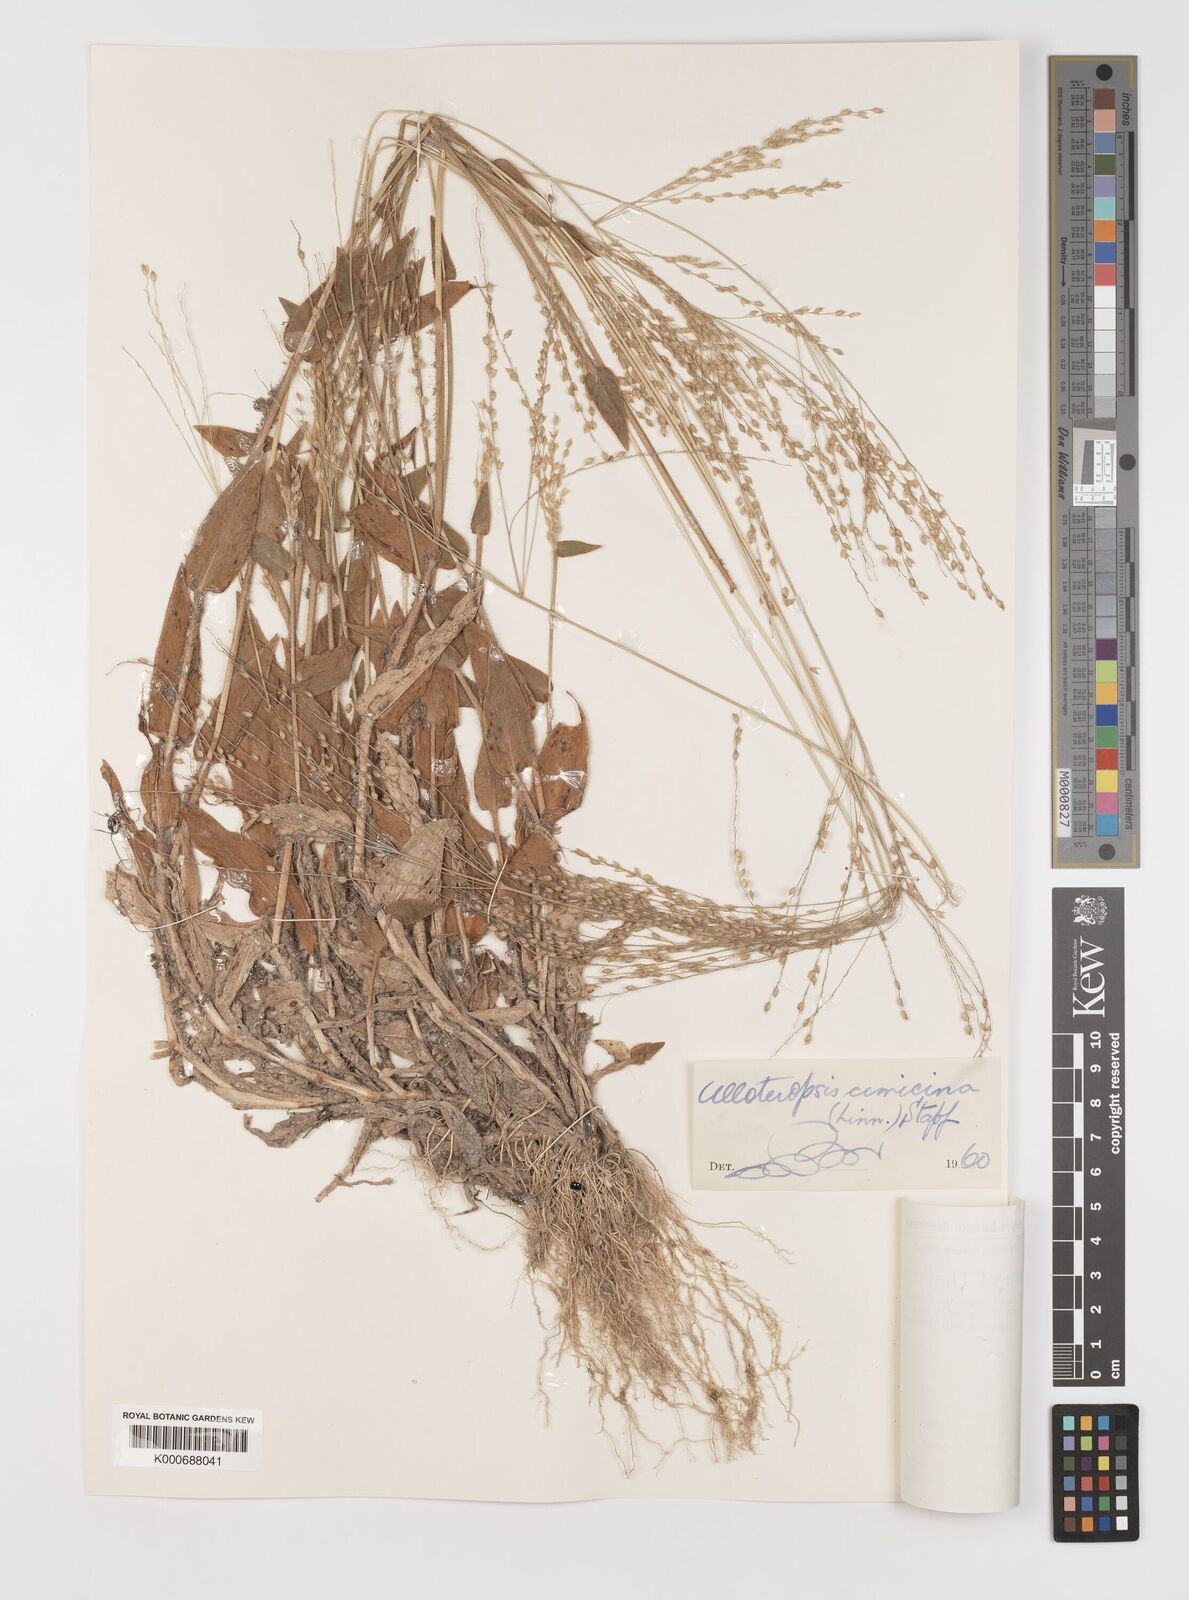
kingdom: Plantae
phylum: Tracheophyta
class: Liliopsida
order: Poales
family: Poaceae
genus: Alloteropsis
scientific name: Alloteropsis cimicina
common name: Summergrass
